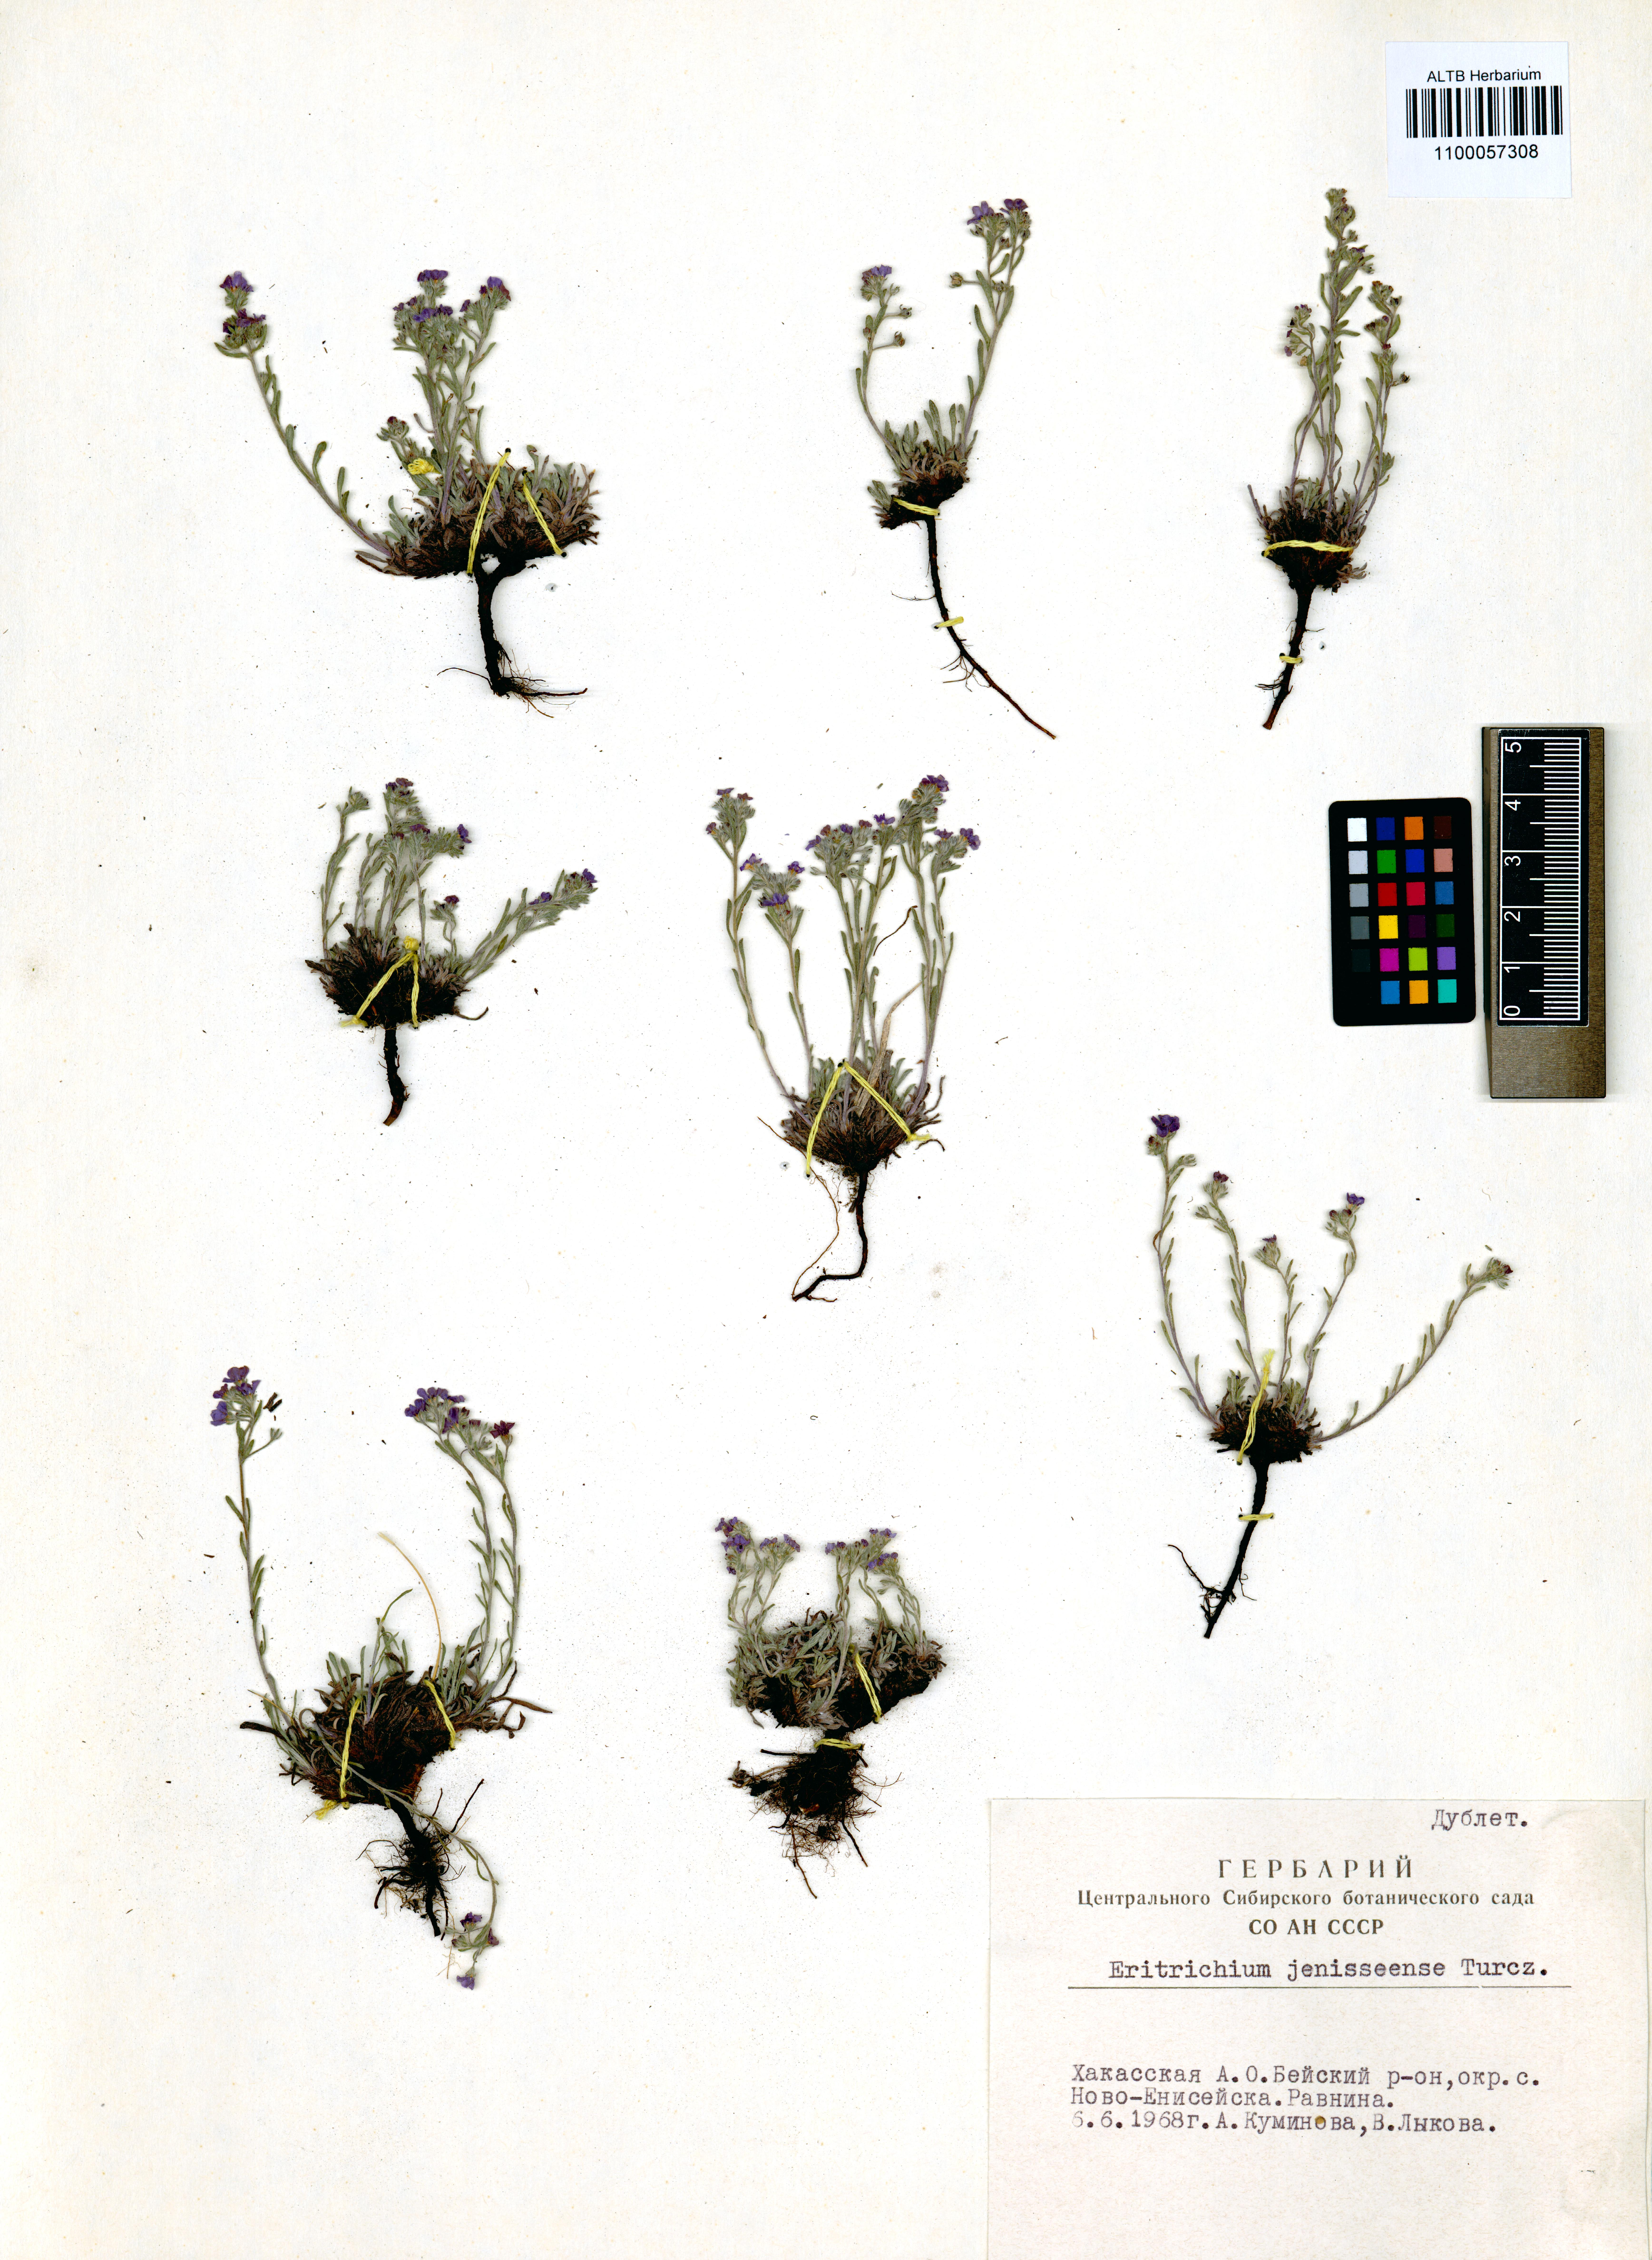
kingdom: Plantae
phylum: Tracheophyta
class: Magnoliopsida
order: Boraginales
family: Boraginaceae
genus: Eritrichium
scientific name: Eritrichium jenisseense
